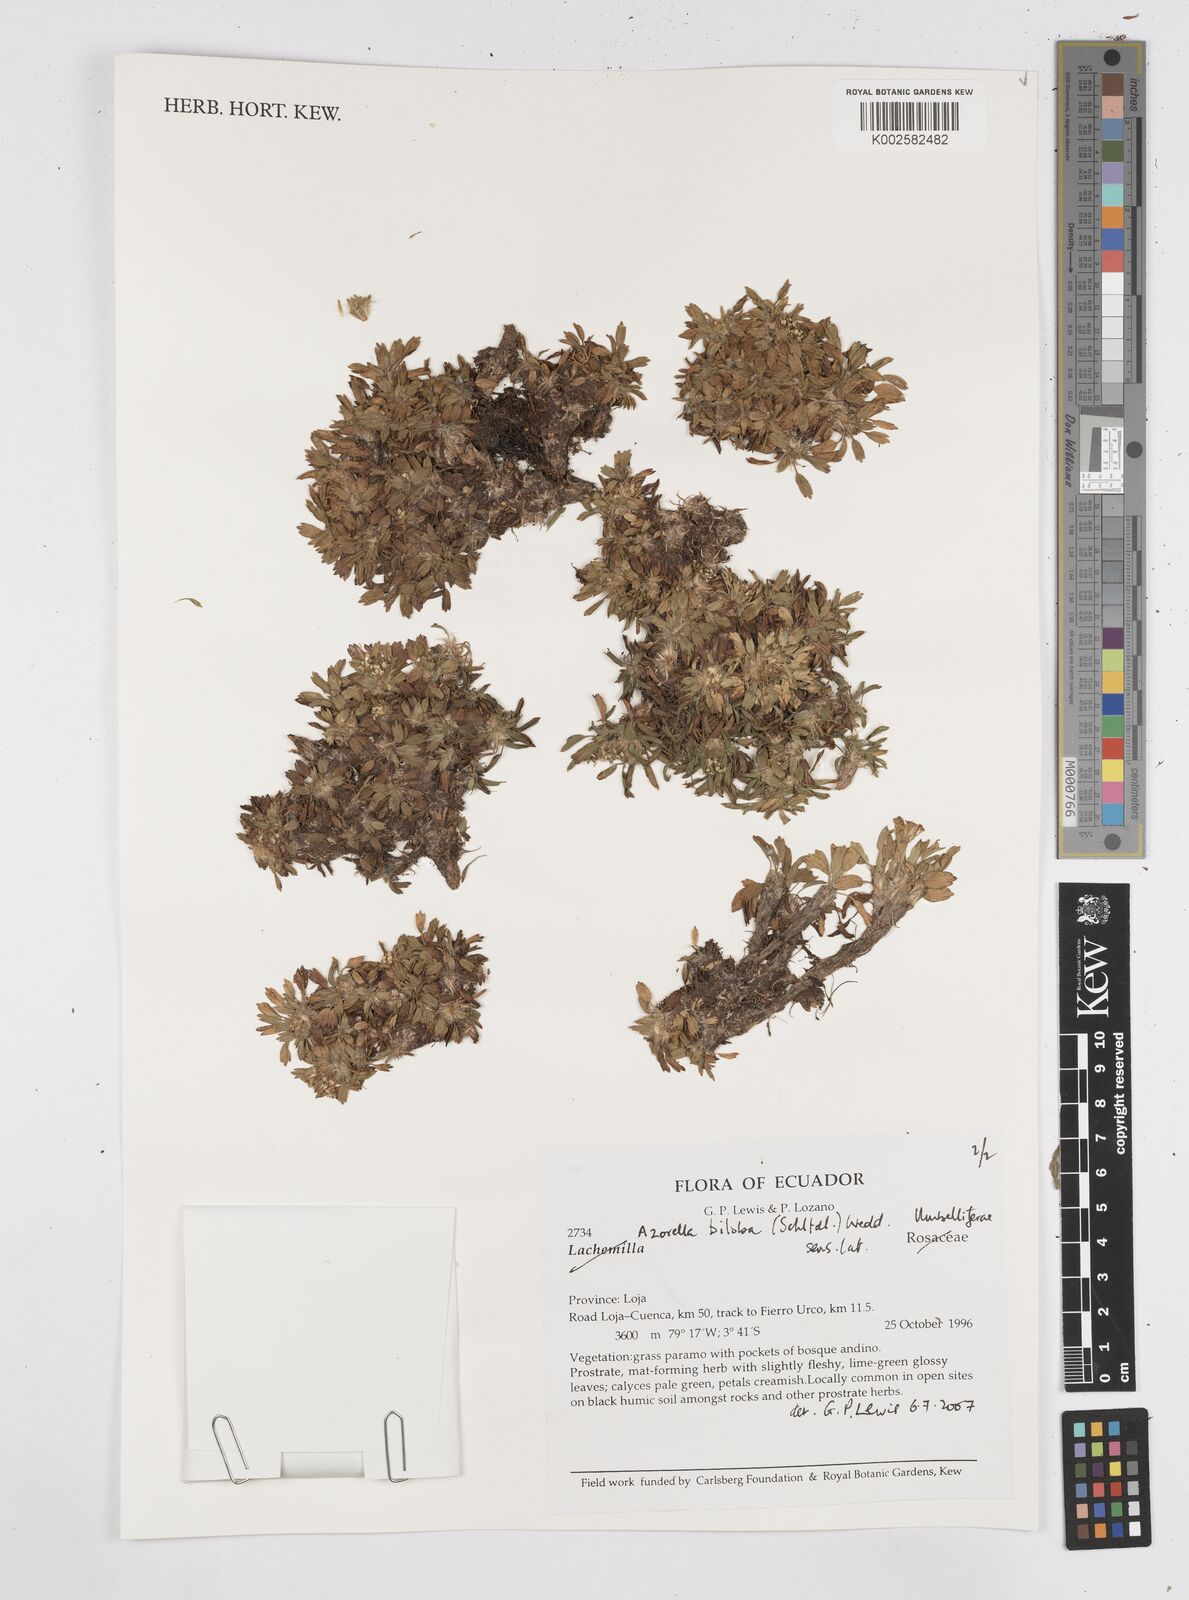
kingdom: Plantae
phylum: Tracheophyta
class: Magnoliopsida
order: Apiales
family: Apiaceae
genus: Azorella
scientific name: Azorella biloba
